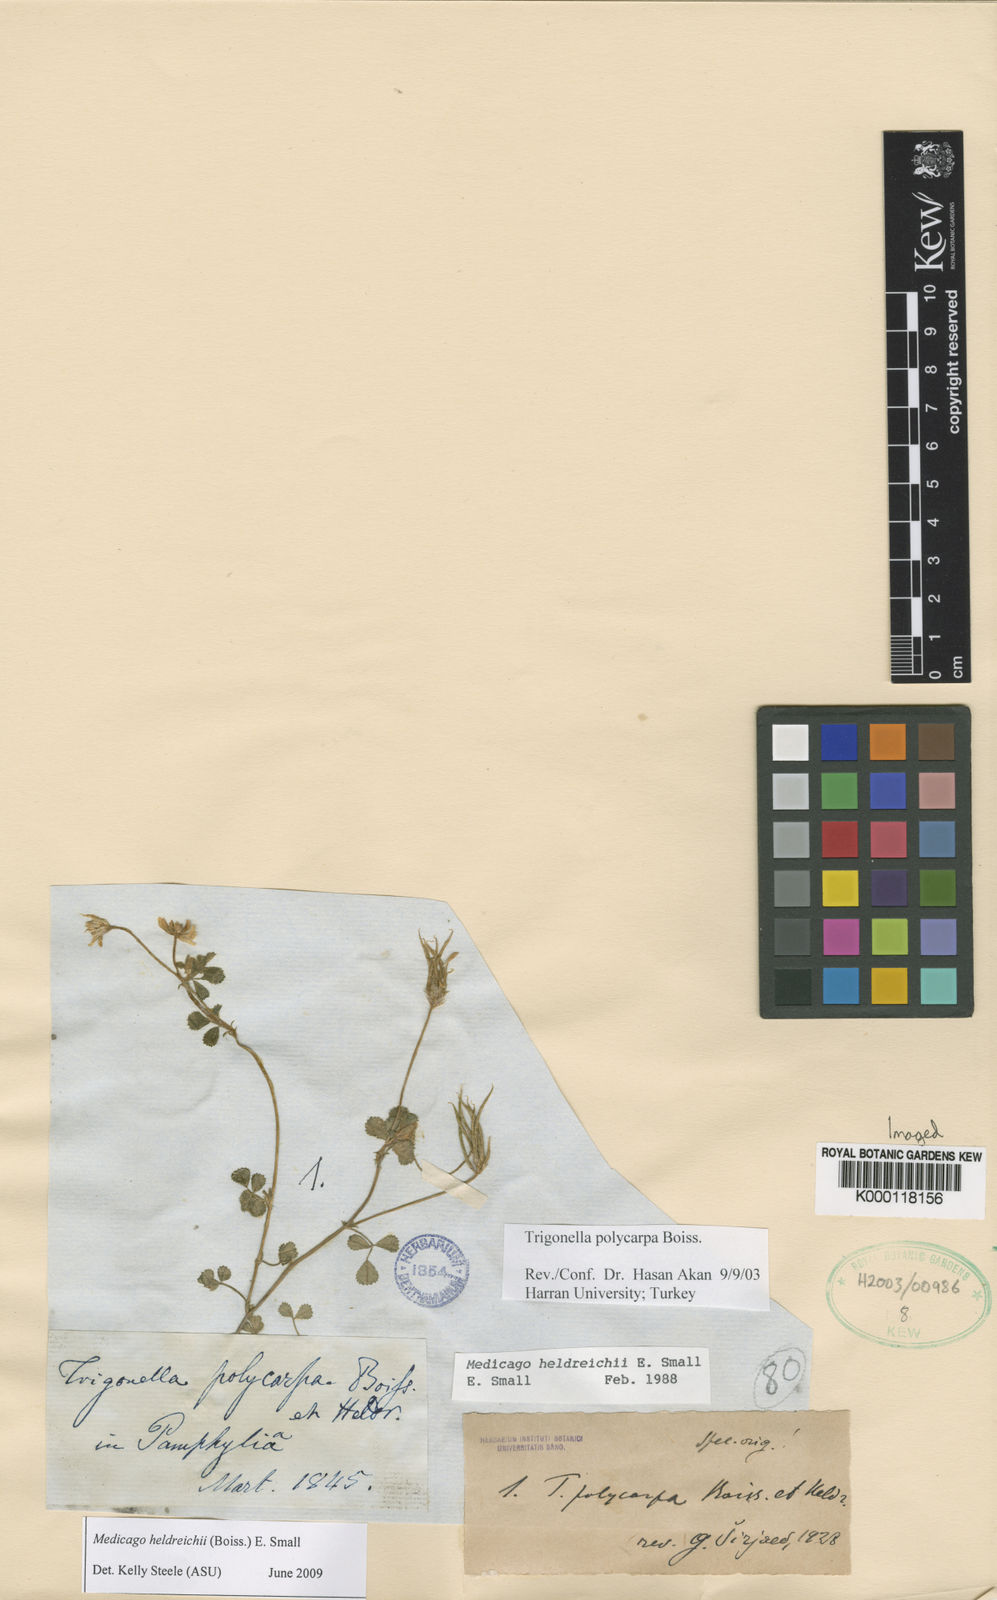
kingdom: Plantae
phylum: Tracheophyta
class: Magnoliopsida
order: Fabales
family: Fabaceae
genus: Medicago
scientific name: Medicago heldreichii
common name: Heldreich's alfalfa
